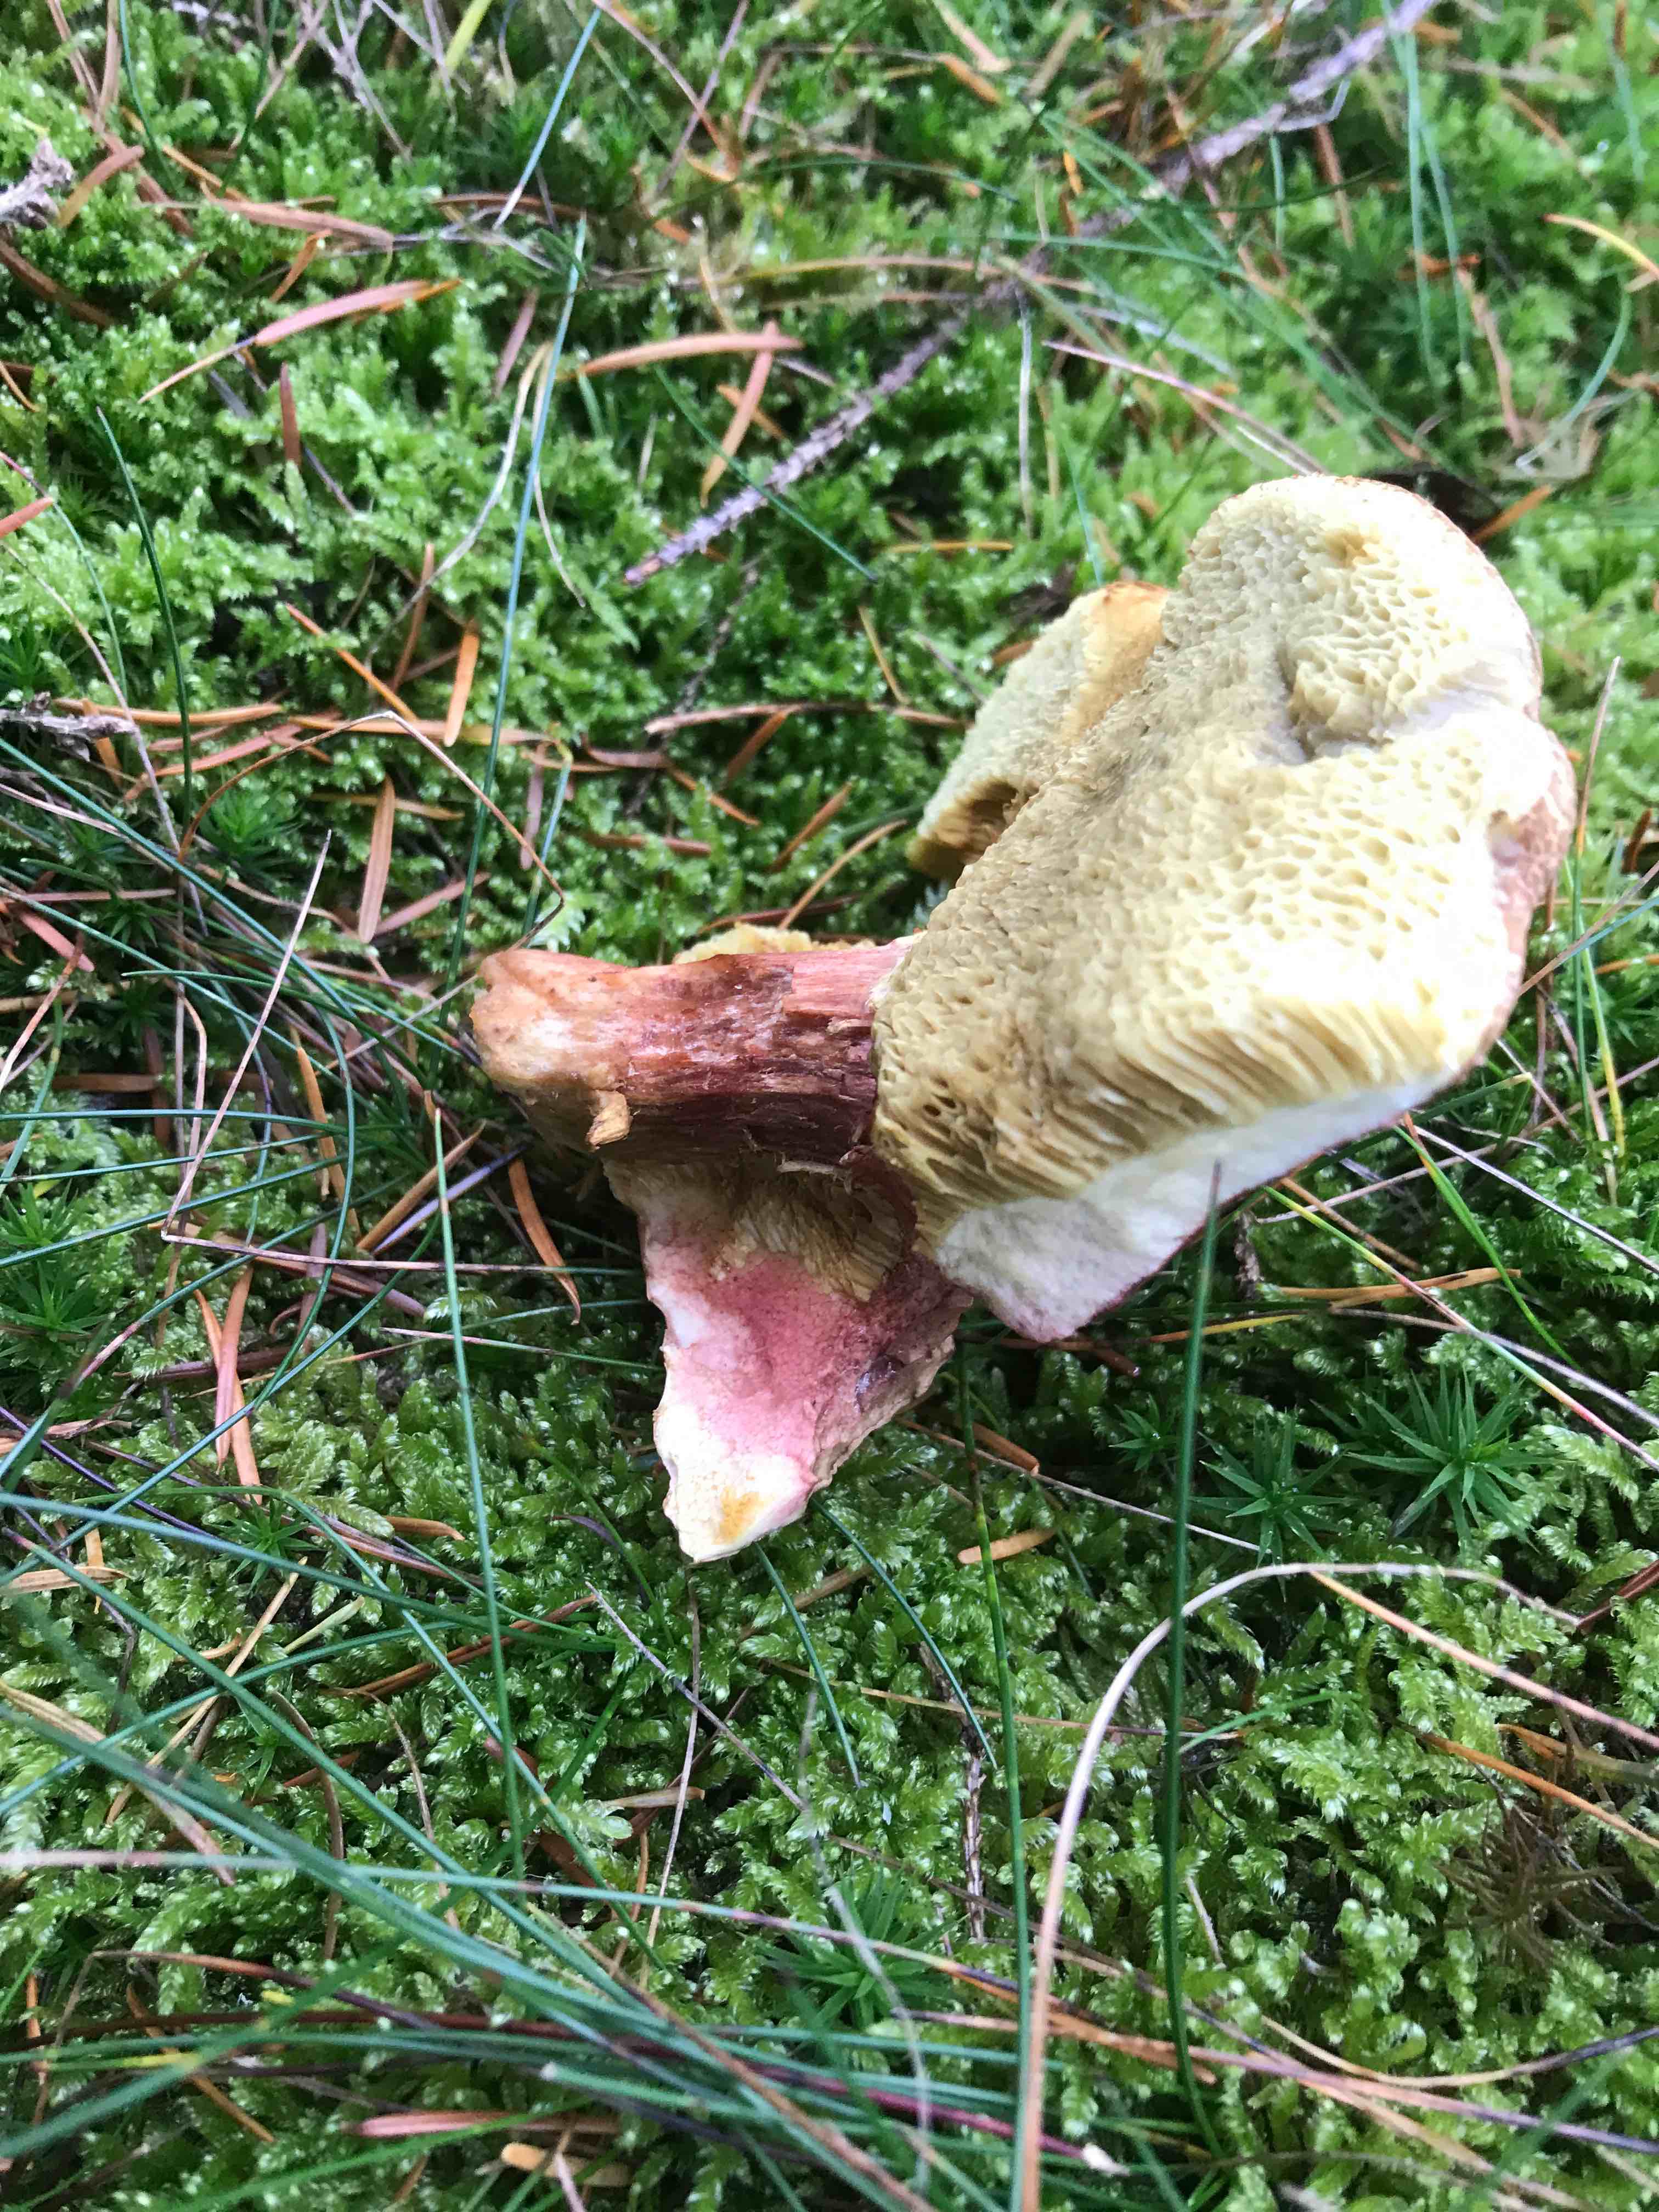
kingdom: Fungi
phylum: Basidiomycota
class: Agaricomycetes
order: Boletales
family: Boletaceae
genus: Xerocomellus
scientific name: Xerocomellus chrysenteron
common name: rødsprukken rørhat
